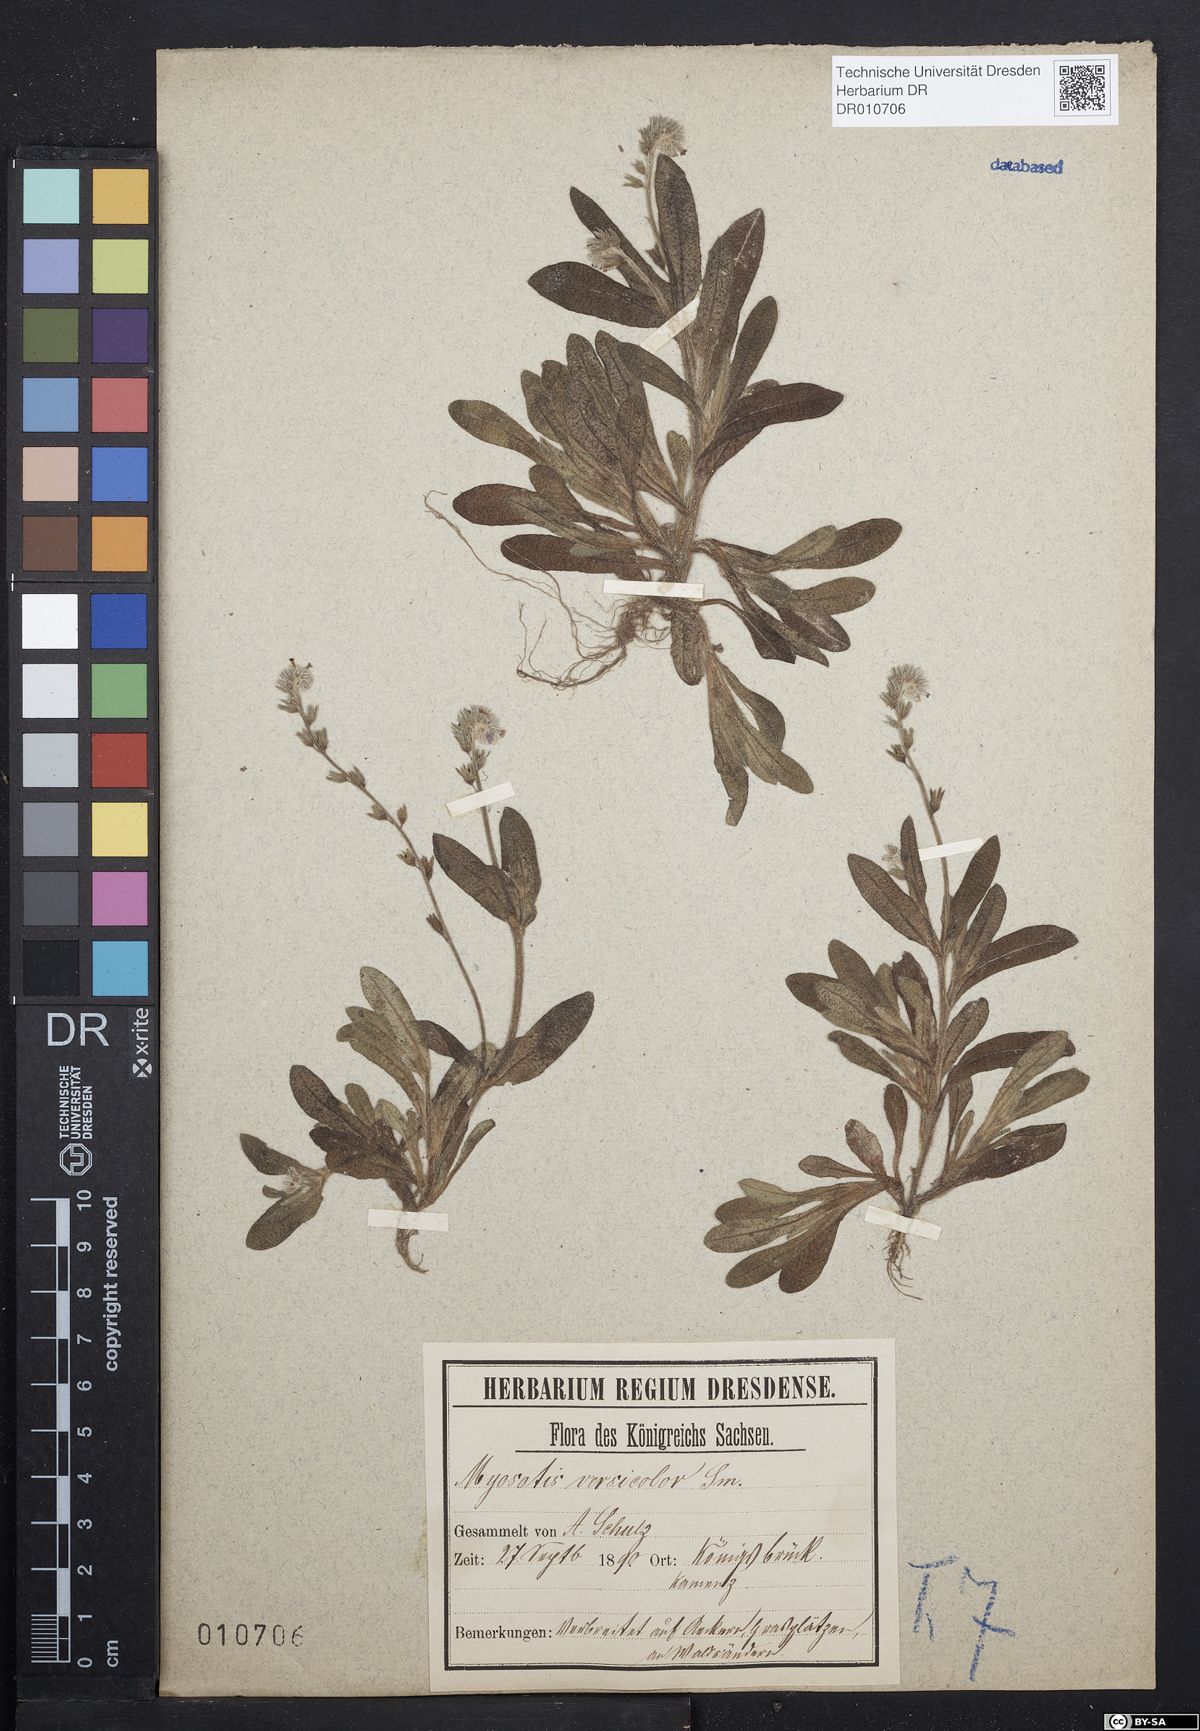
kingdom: Plantae
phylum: Tracheophyta
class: Magnoliopsida
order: Boraginales
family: Boraginaceae
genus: Myosotis
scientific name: Myosotis discolor
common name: Changing forget-me-not
